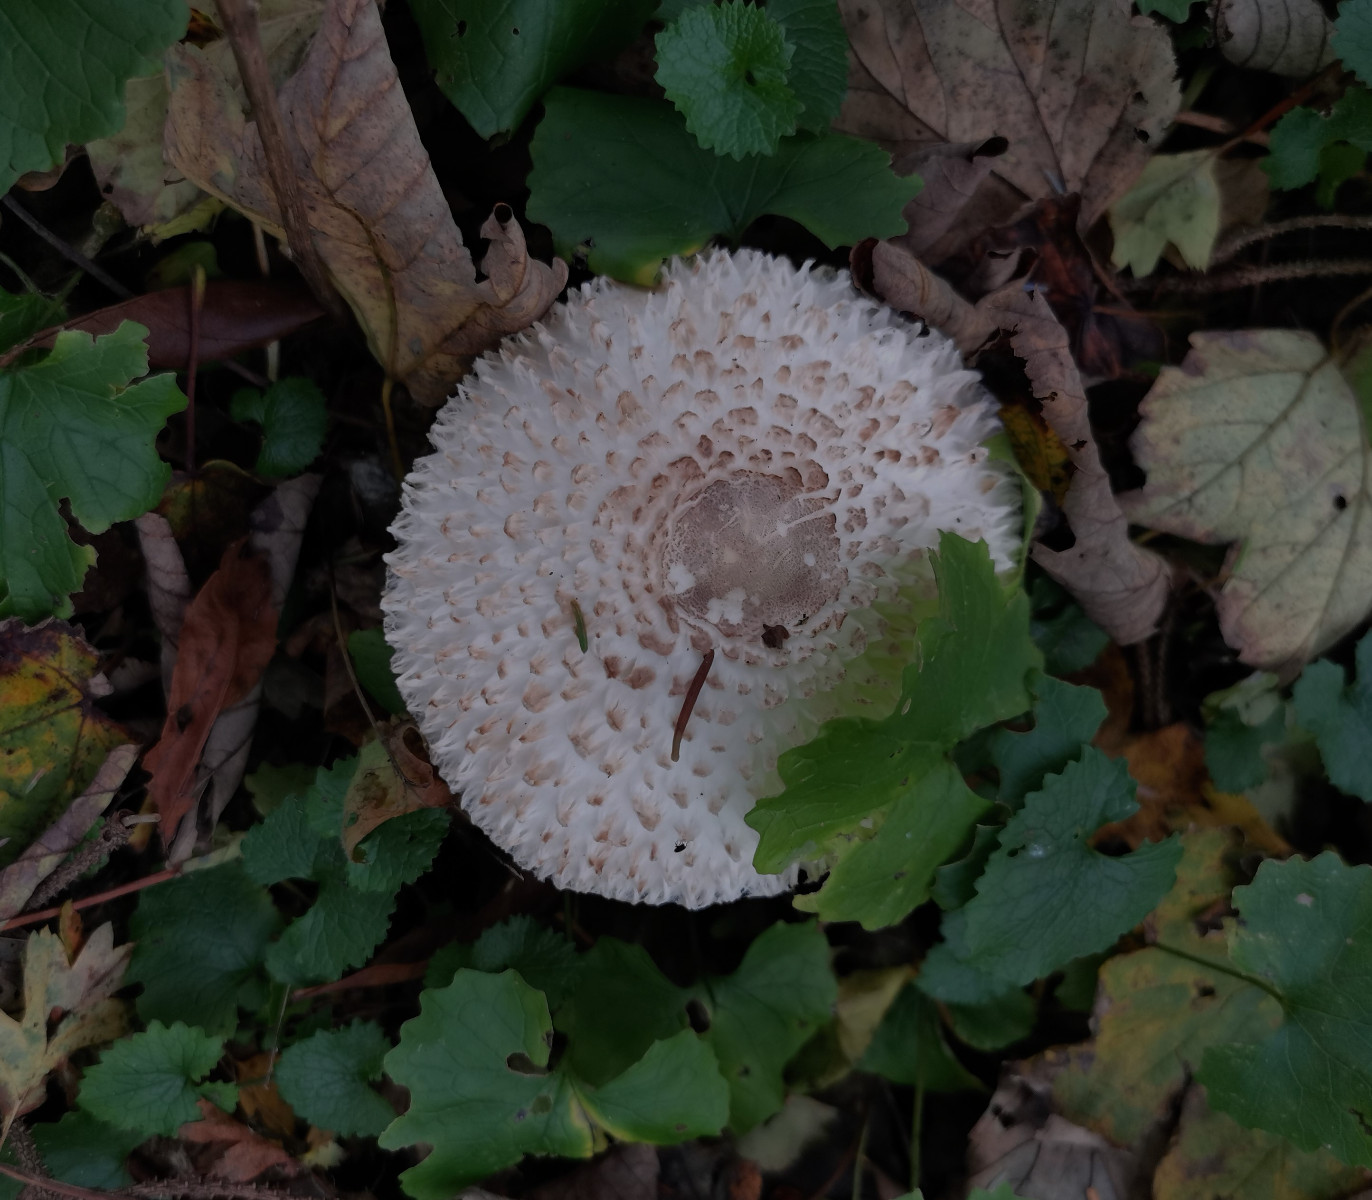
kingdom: Fungi
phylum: Basidiomycota
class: Agaricomycetes
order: Agaricales
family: Agaricaceae
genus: Leucoagaricus
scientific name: Leucoagaricus nympharum
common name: gran-silkehat
